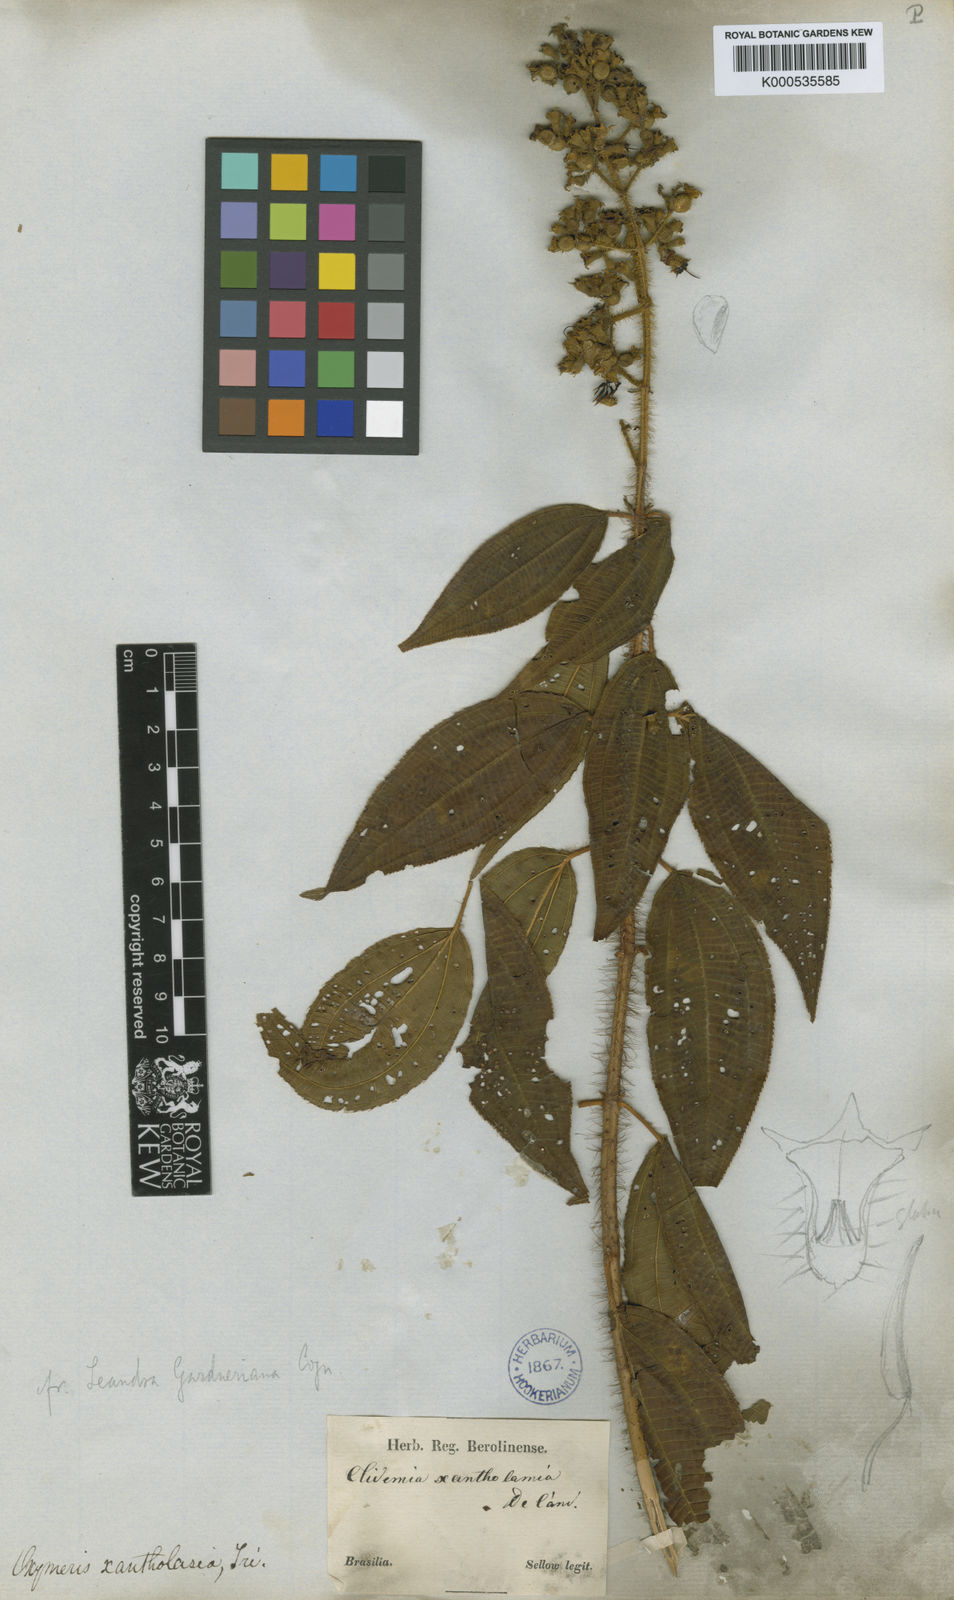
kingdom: Plantae
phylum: Tracheophyta
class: Magnoliopsida
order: Myrtales
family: Melastomataceae
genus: Miconia
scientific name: Miconia xantholasia
